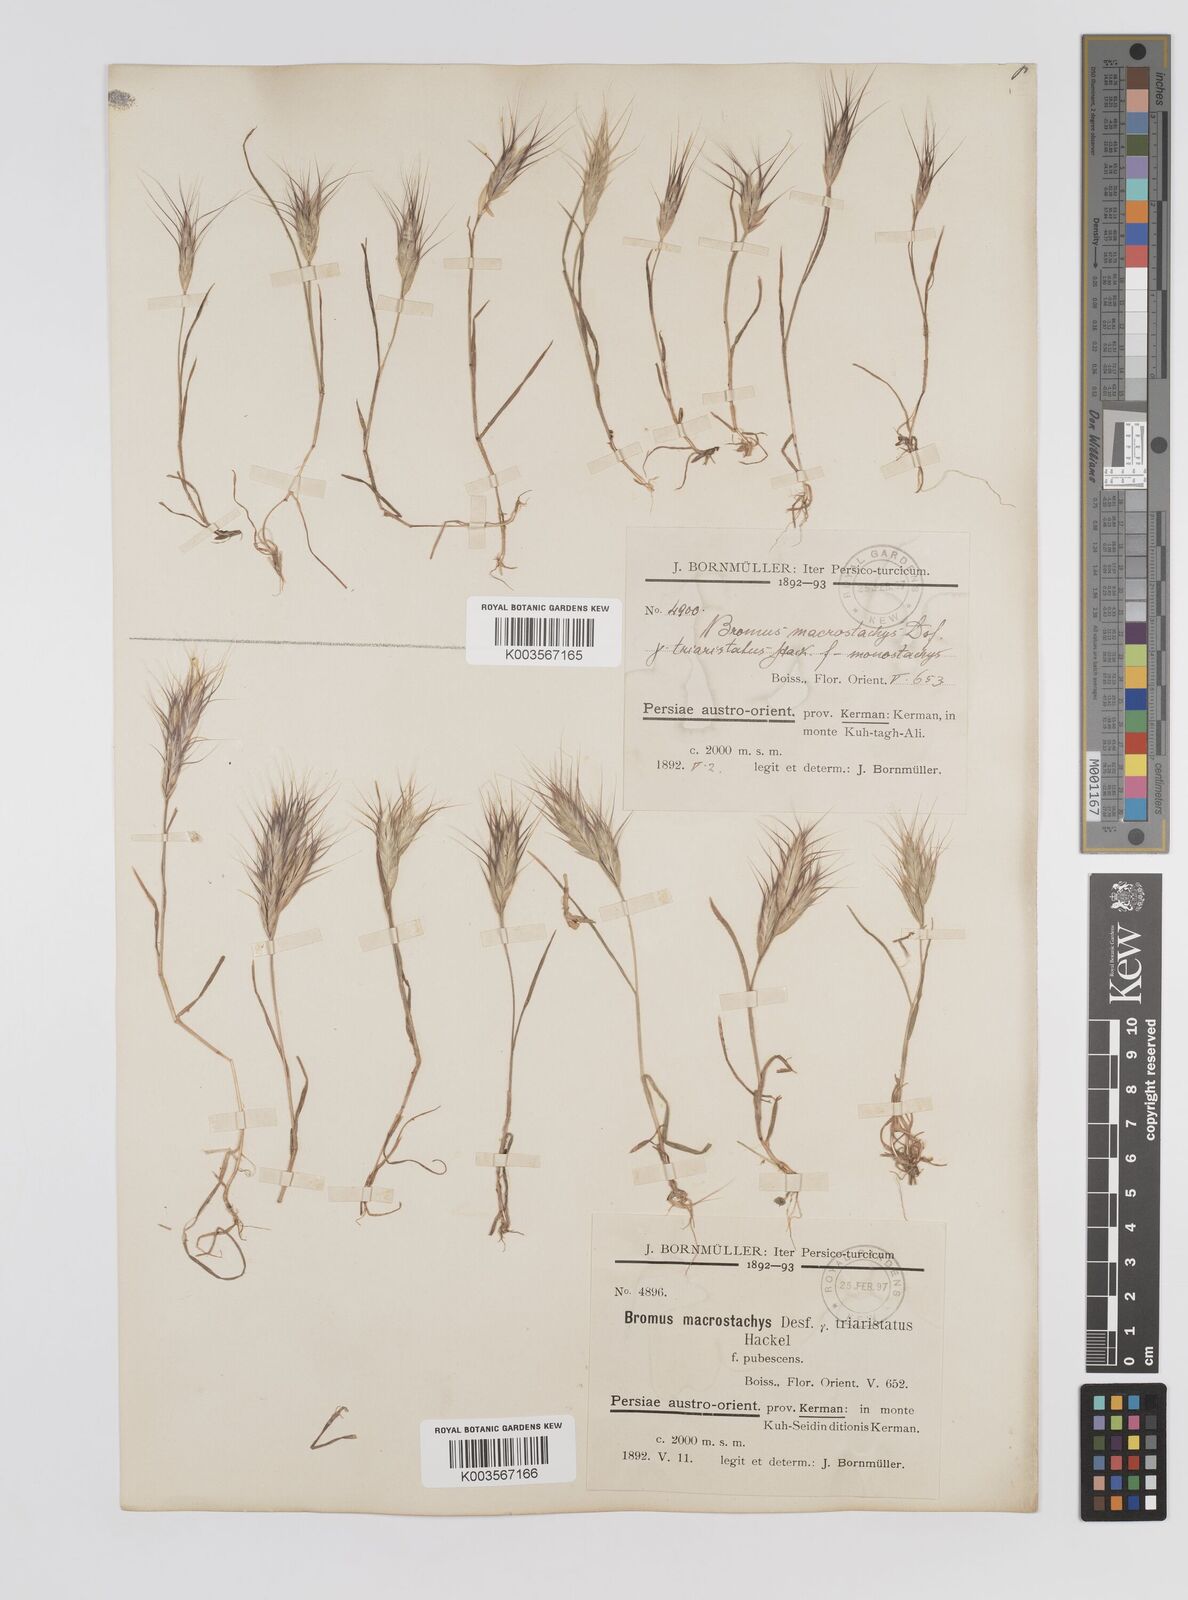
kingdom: Plantae
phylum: Tracheophyta
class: Liliopsida
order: Poales
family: Poaceae
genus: Bromus
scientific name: Bromus danthoniae
